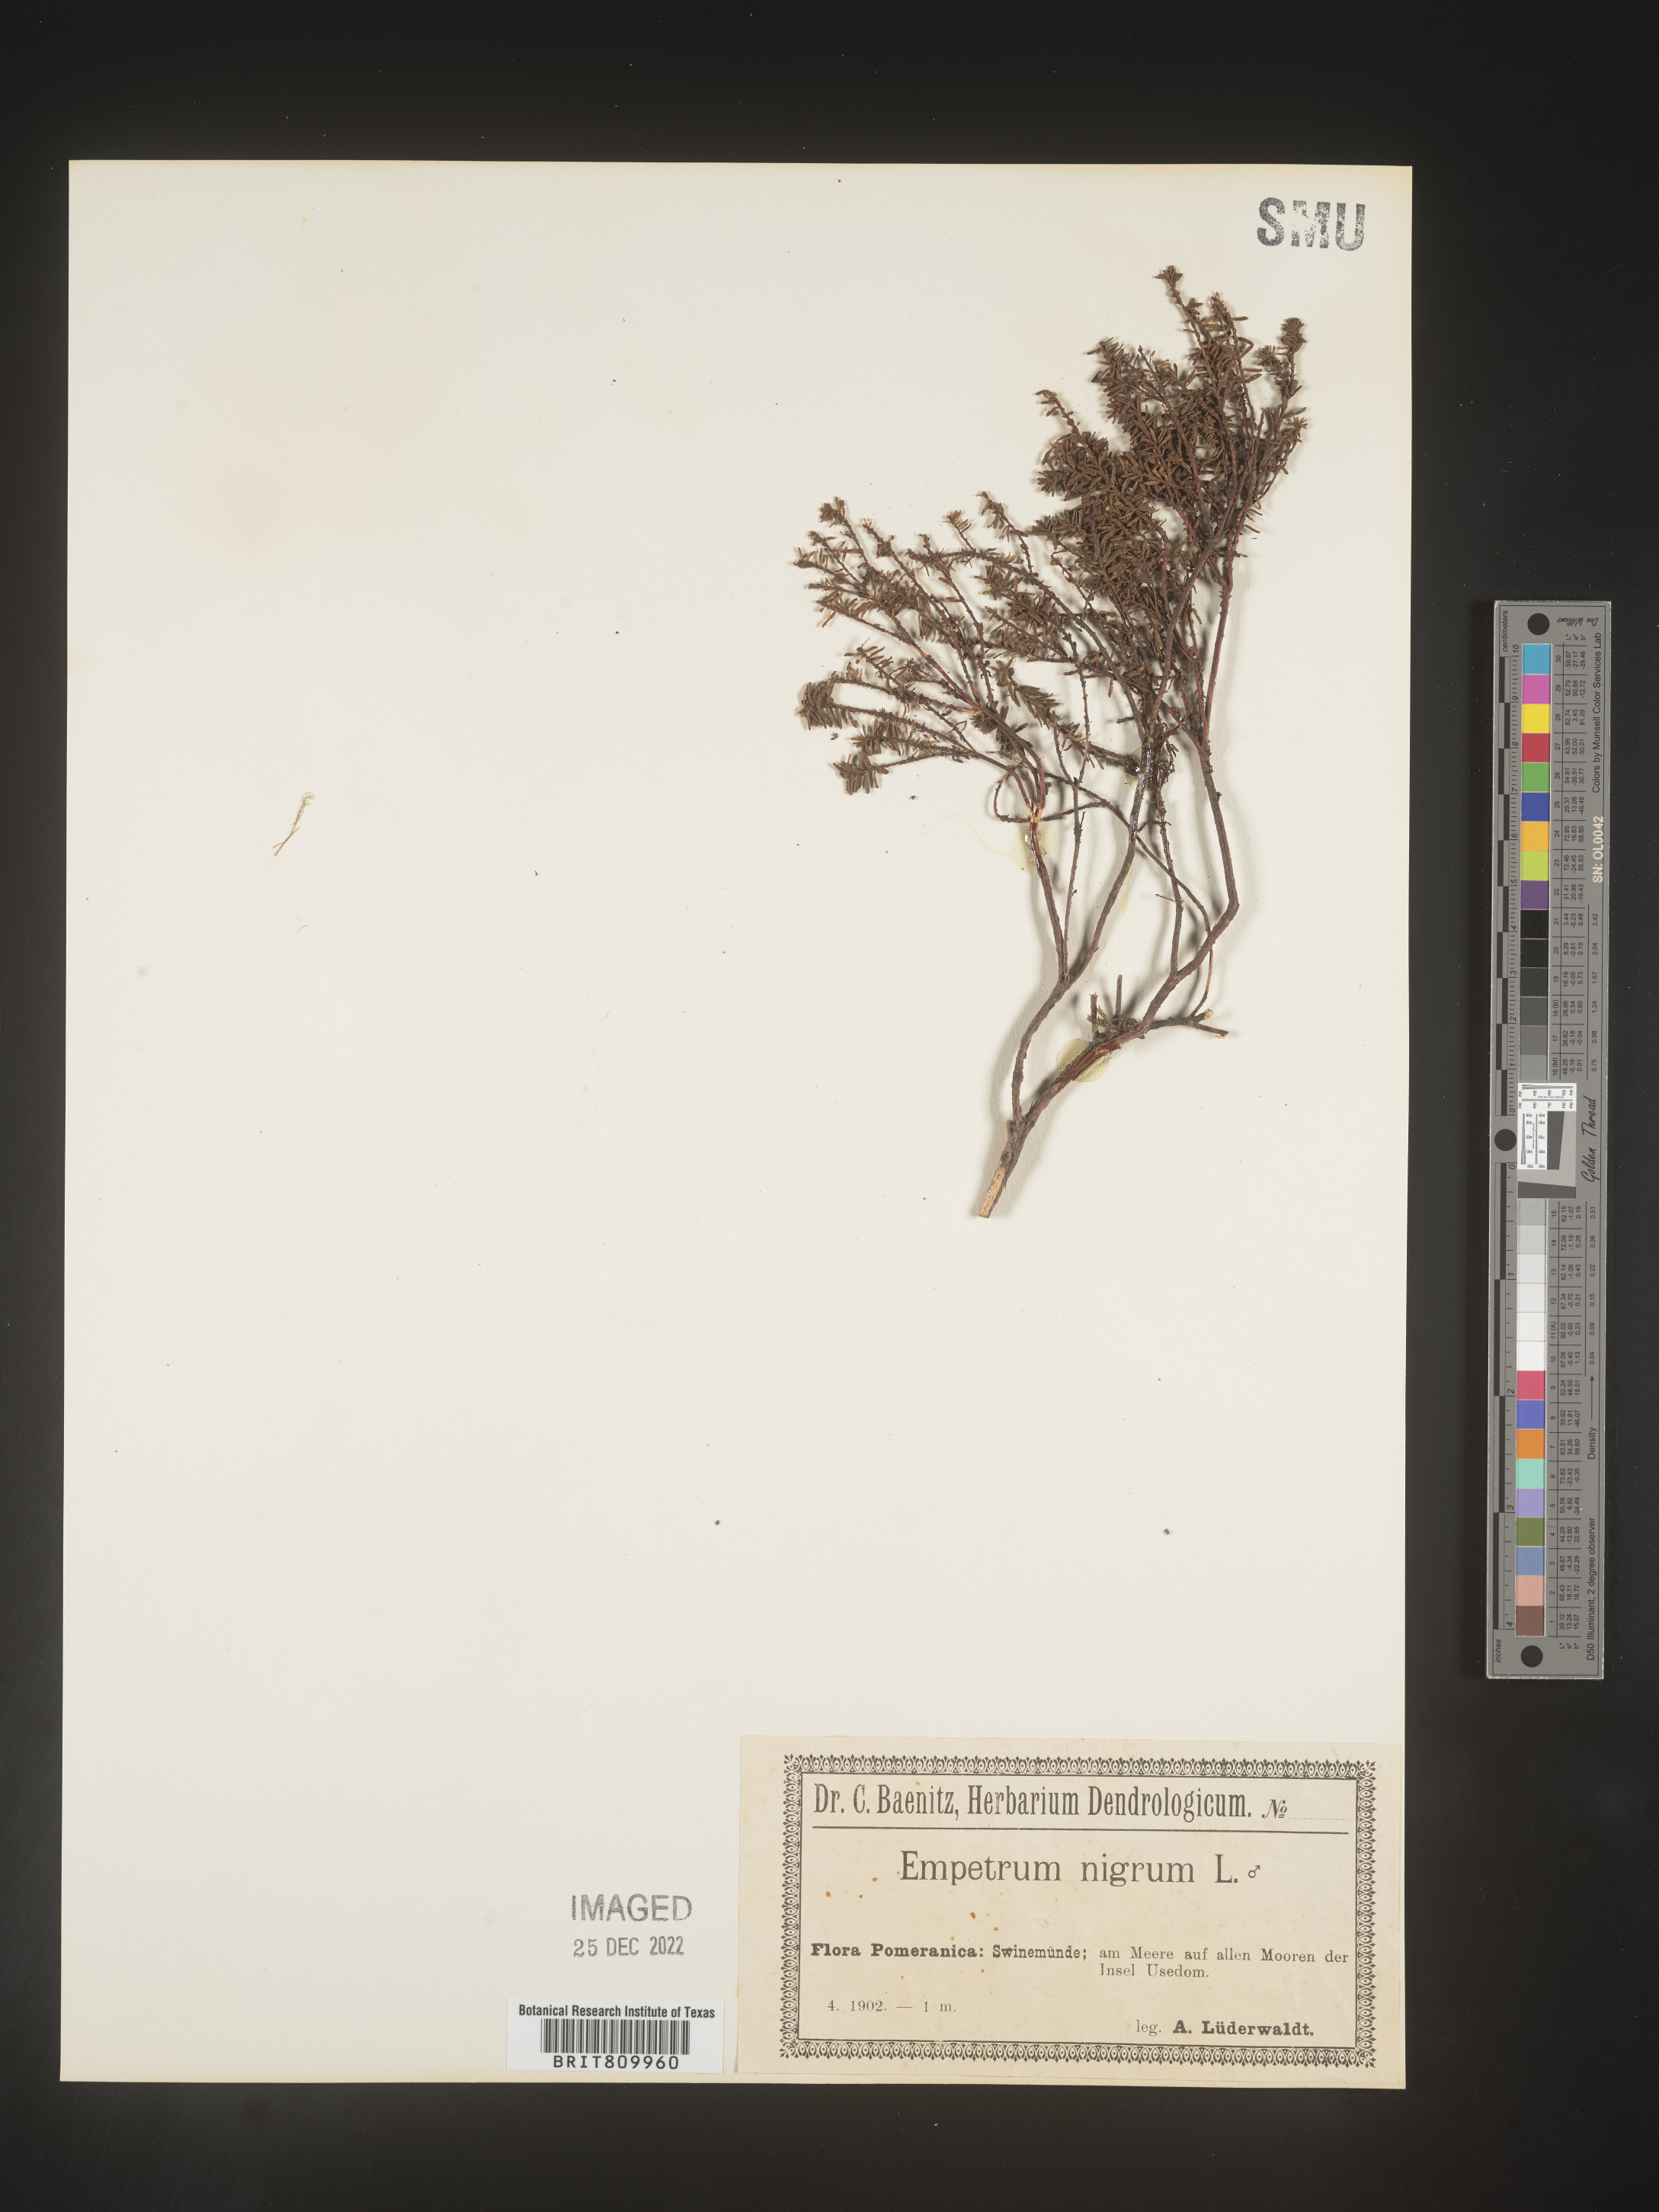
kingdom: Plantae
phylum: Tracheophyta
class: Magnoliopsida
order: Ericales
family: Ericaceae
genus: Empetrum
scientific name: Empetrum
